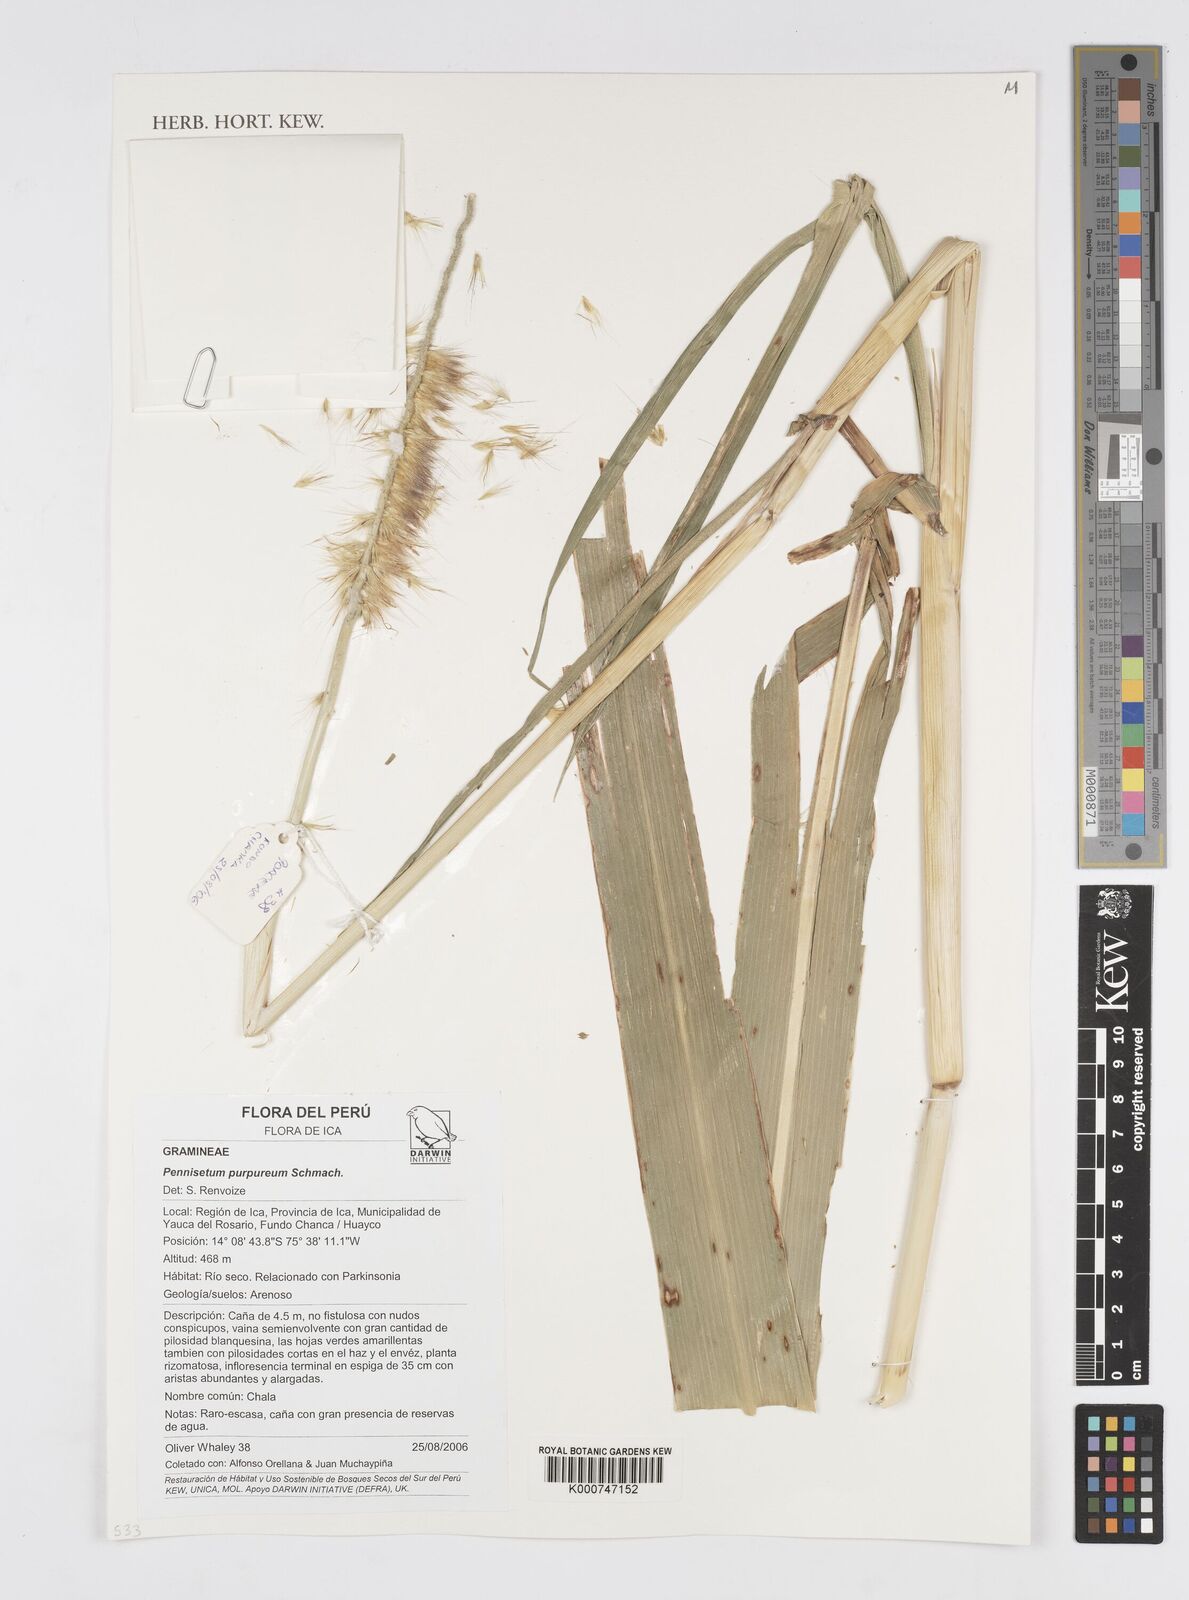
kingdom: Plantae
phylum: Tracheophyta
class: Liliopsida
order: Poales
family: Poaceae
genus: Cenchrus
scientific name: Cenchrus purpureus
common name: Elephant grass
